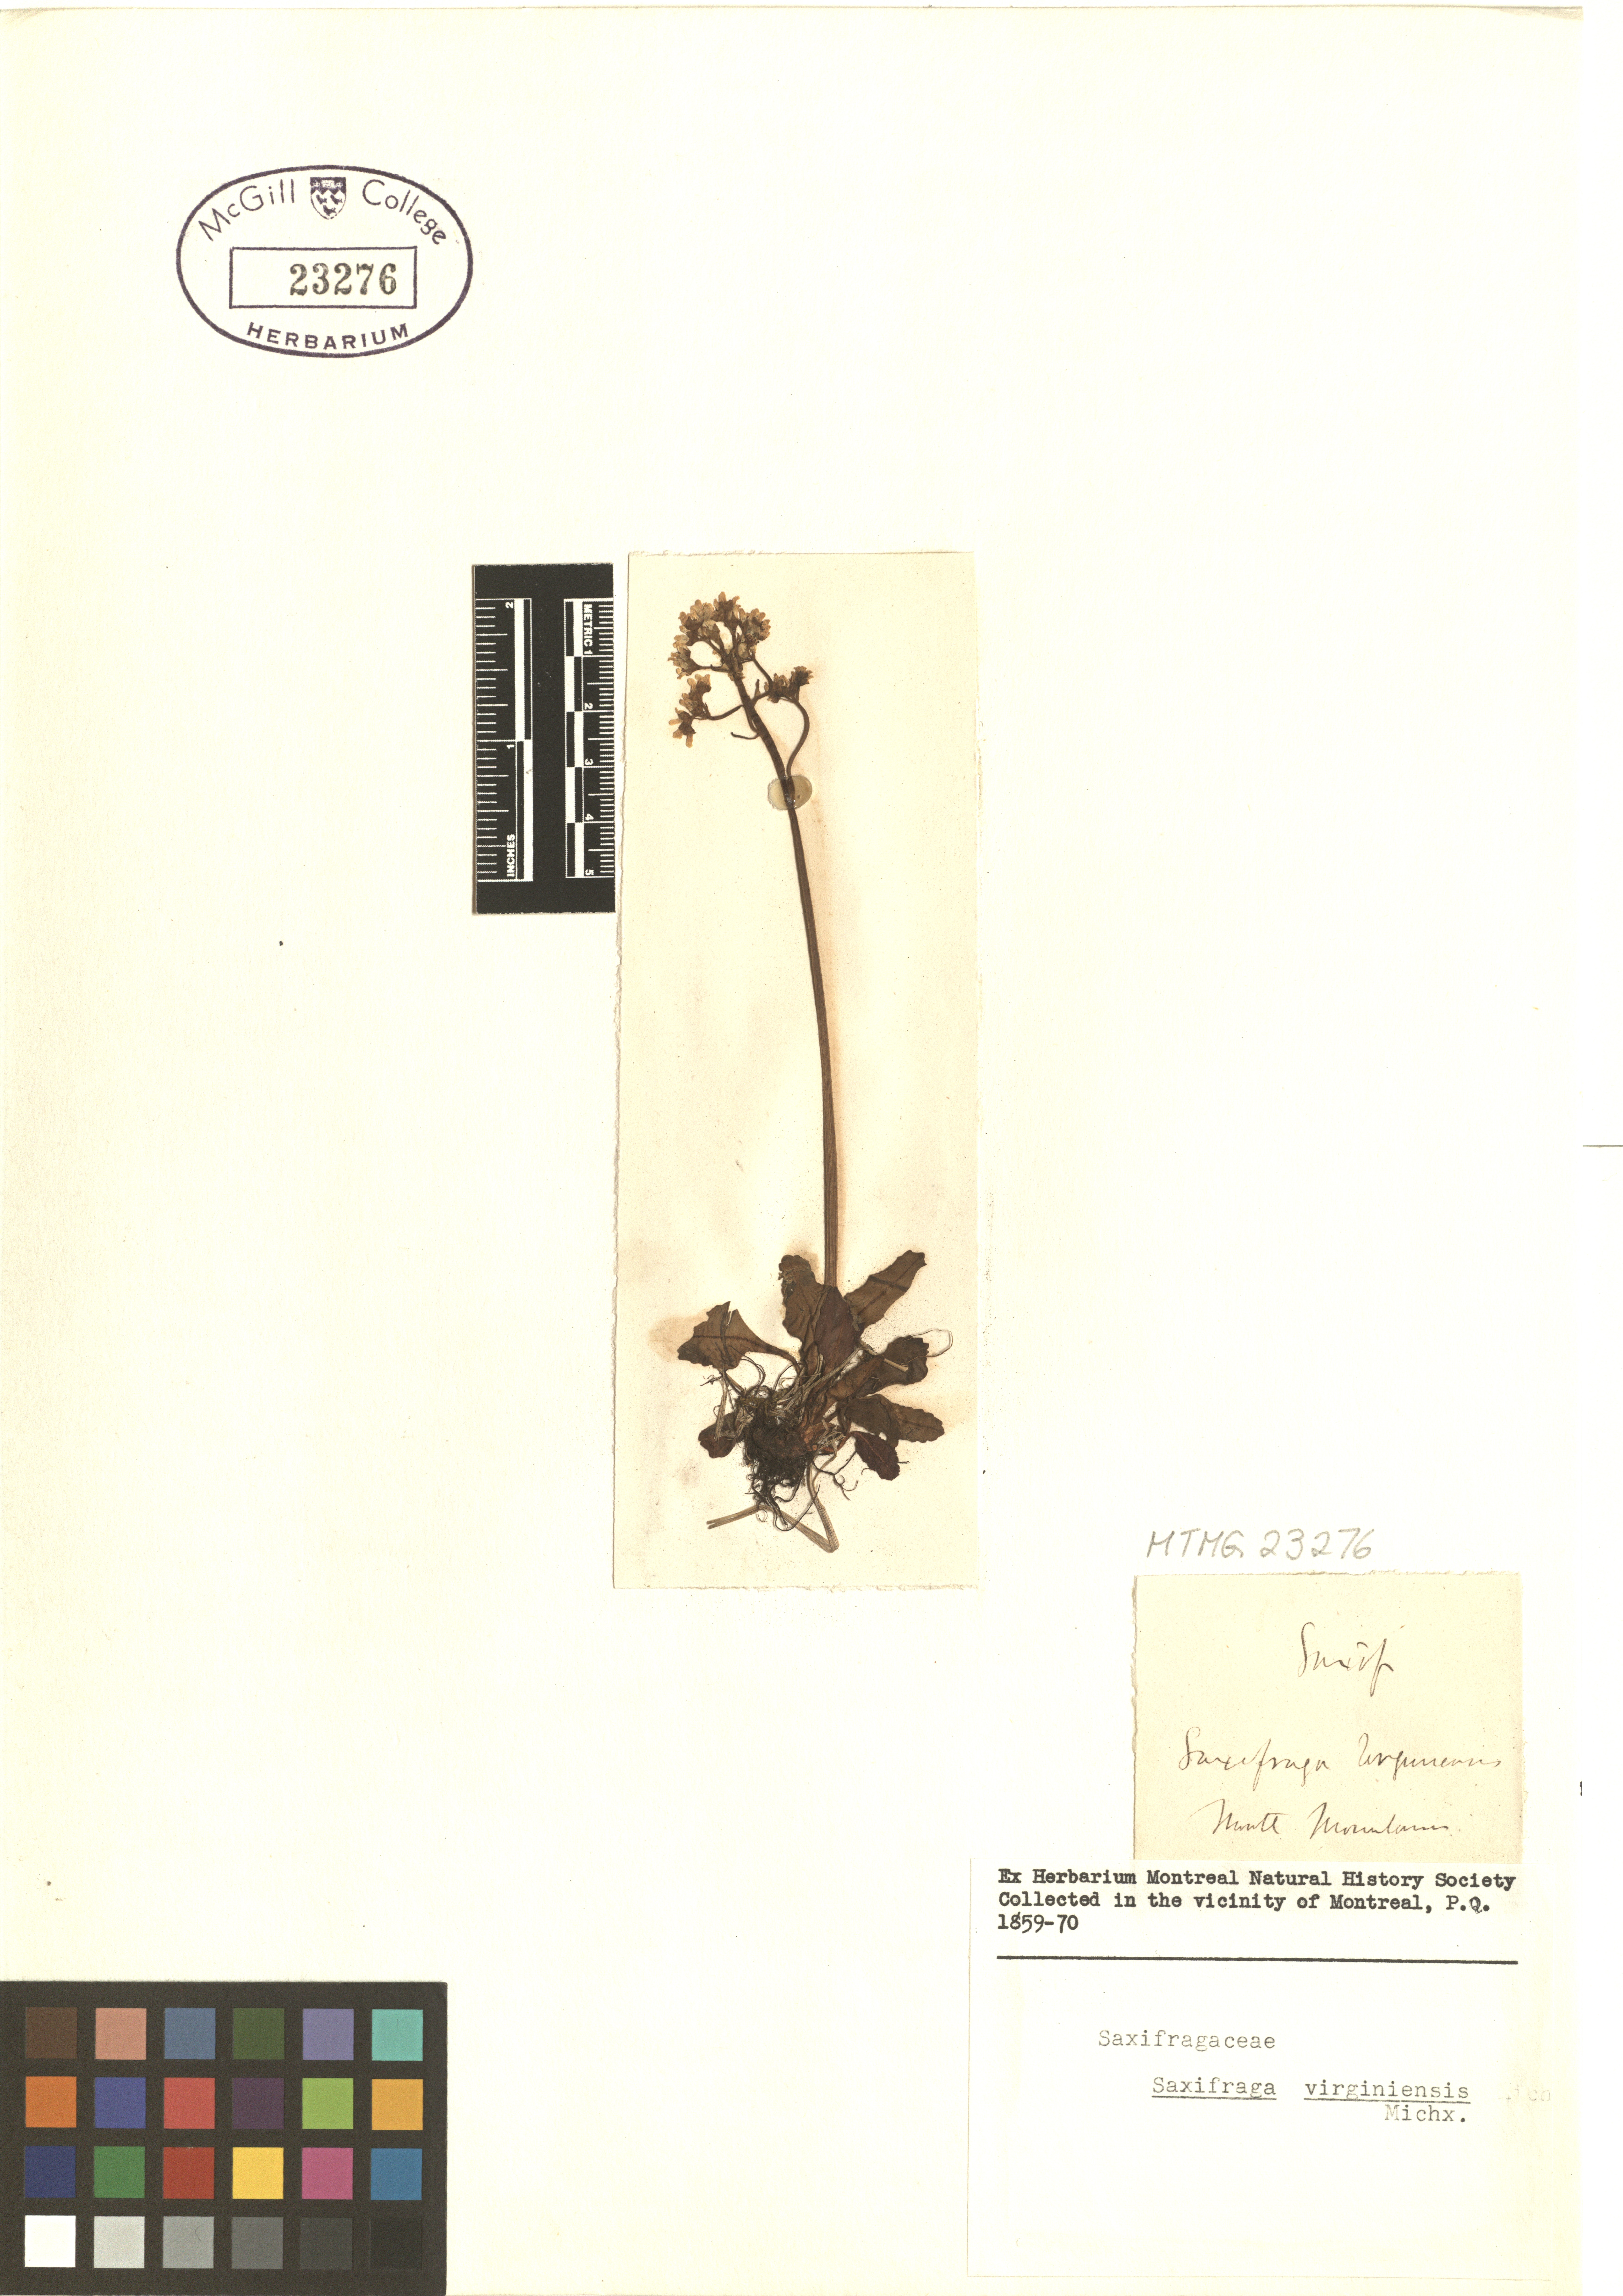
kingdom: Plantae
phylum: Tracheophyta
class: Magnoliopsida
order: Saxifragales
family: Saxifragaceae
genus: Micranthes
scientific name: Micranthes virginiensis
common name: Early saxifrage
